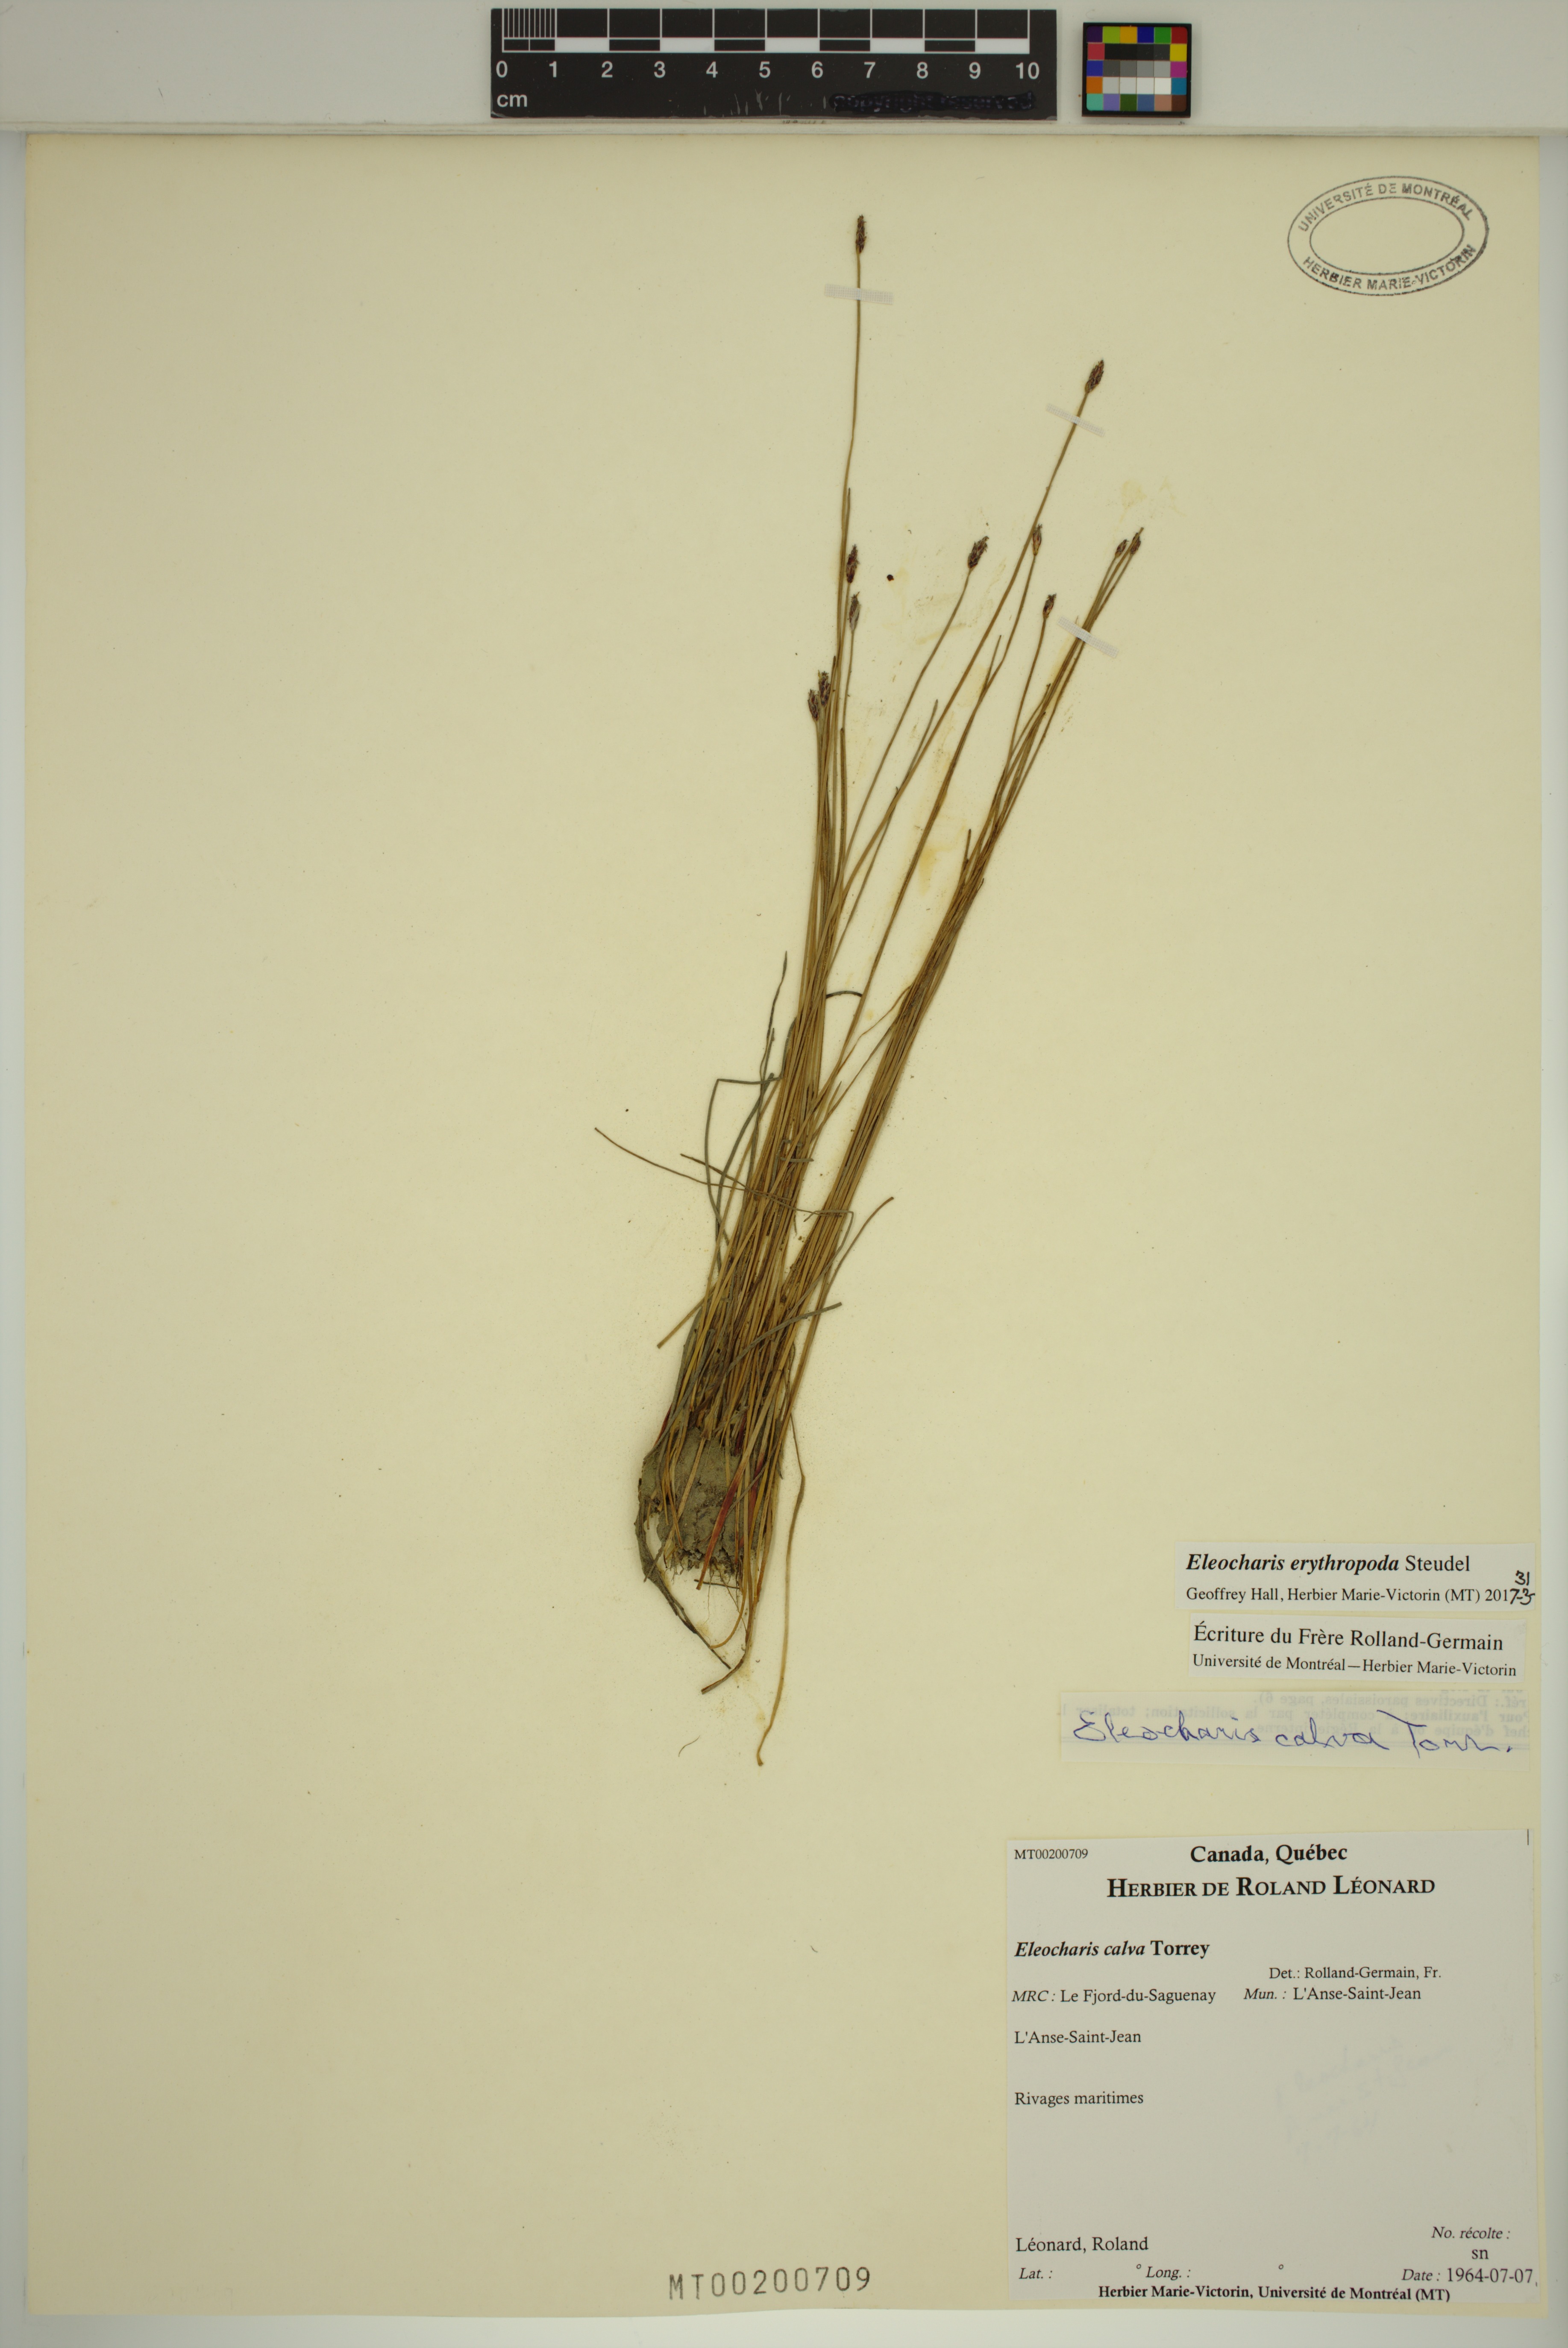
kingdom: Plantae
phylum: Tracheophyta
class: Liliopsida
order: Poales
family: Cyperaceae
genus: Eleocharis
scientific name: Eleocharis erythropoda
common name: Bald spikerush
